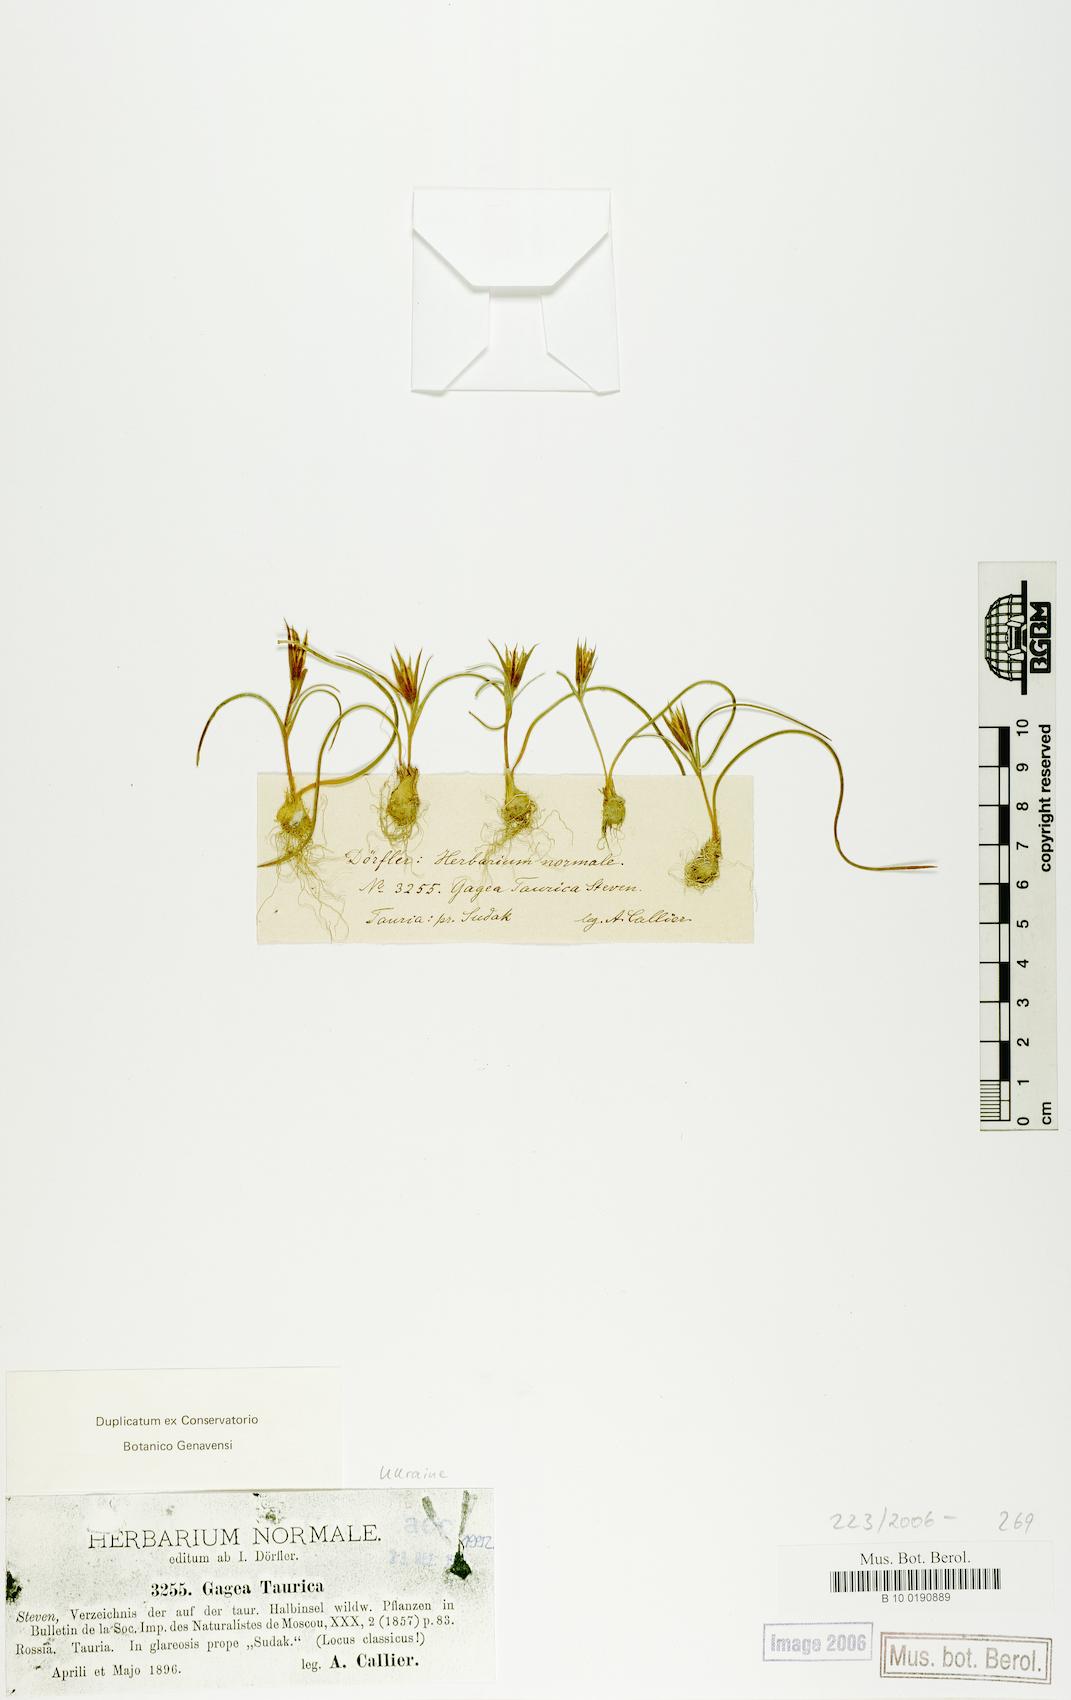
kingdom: Plantae
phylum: Tracheophyta
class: Liliopsida
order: Liliales
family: Liliaceae
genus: Gagea
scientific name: Gagea taurica
